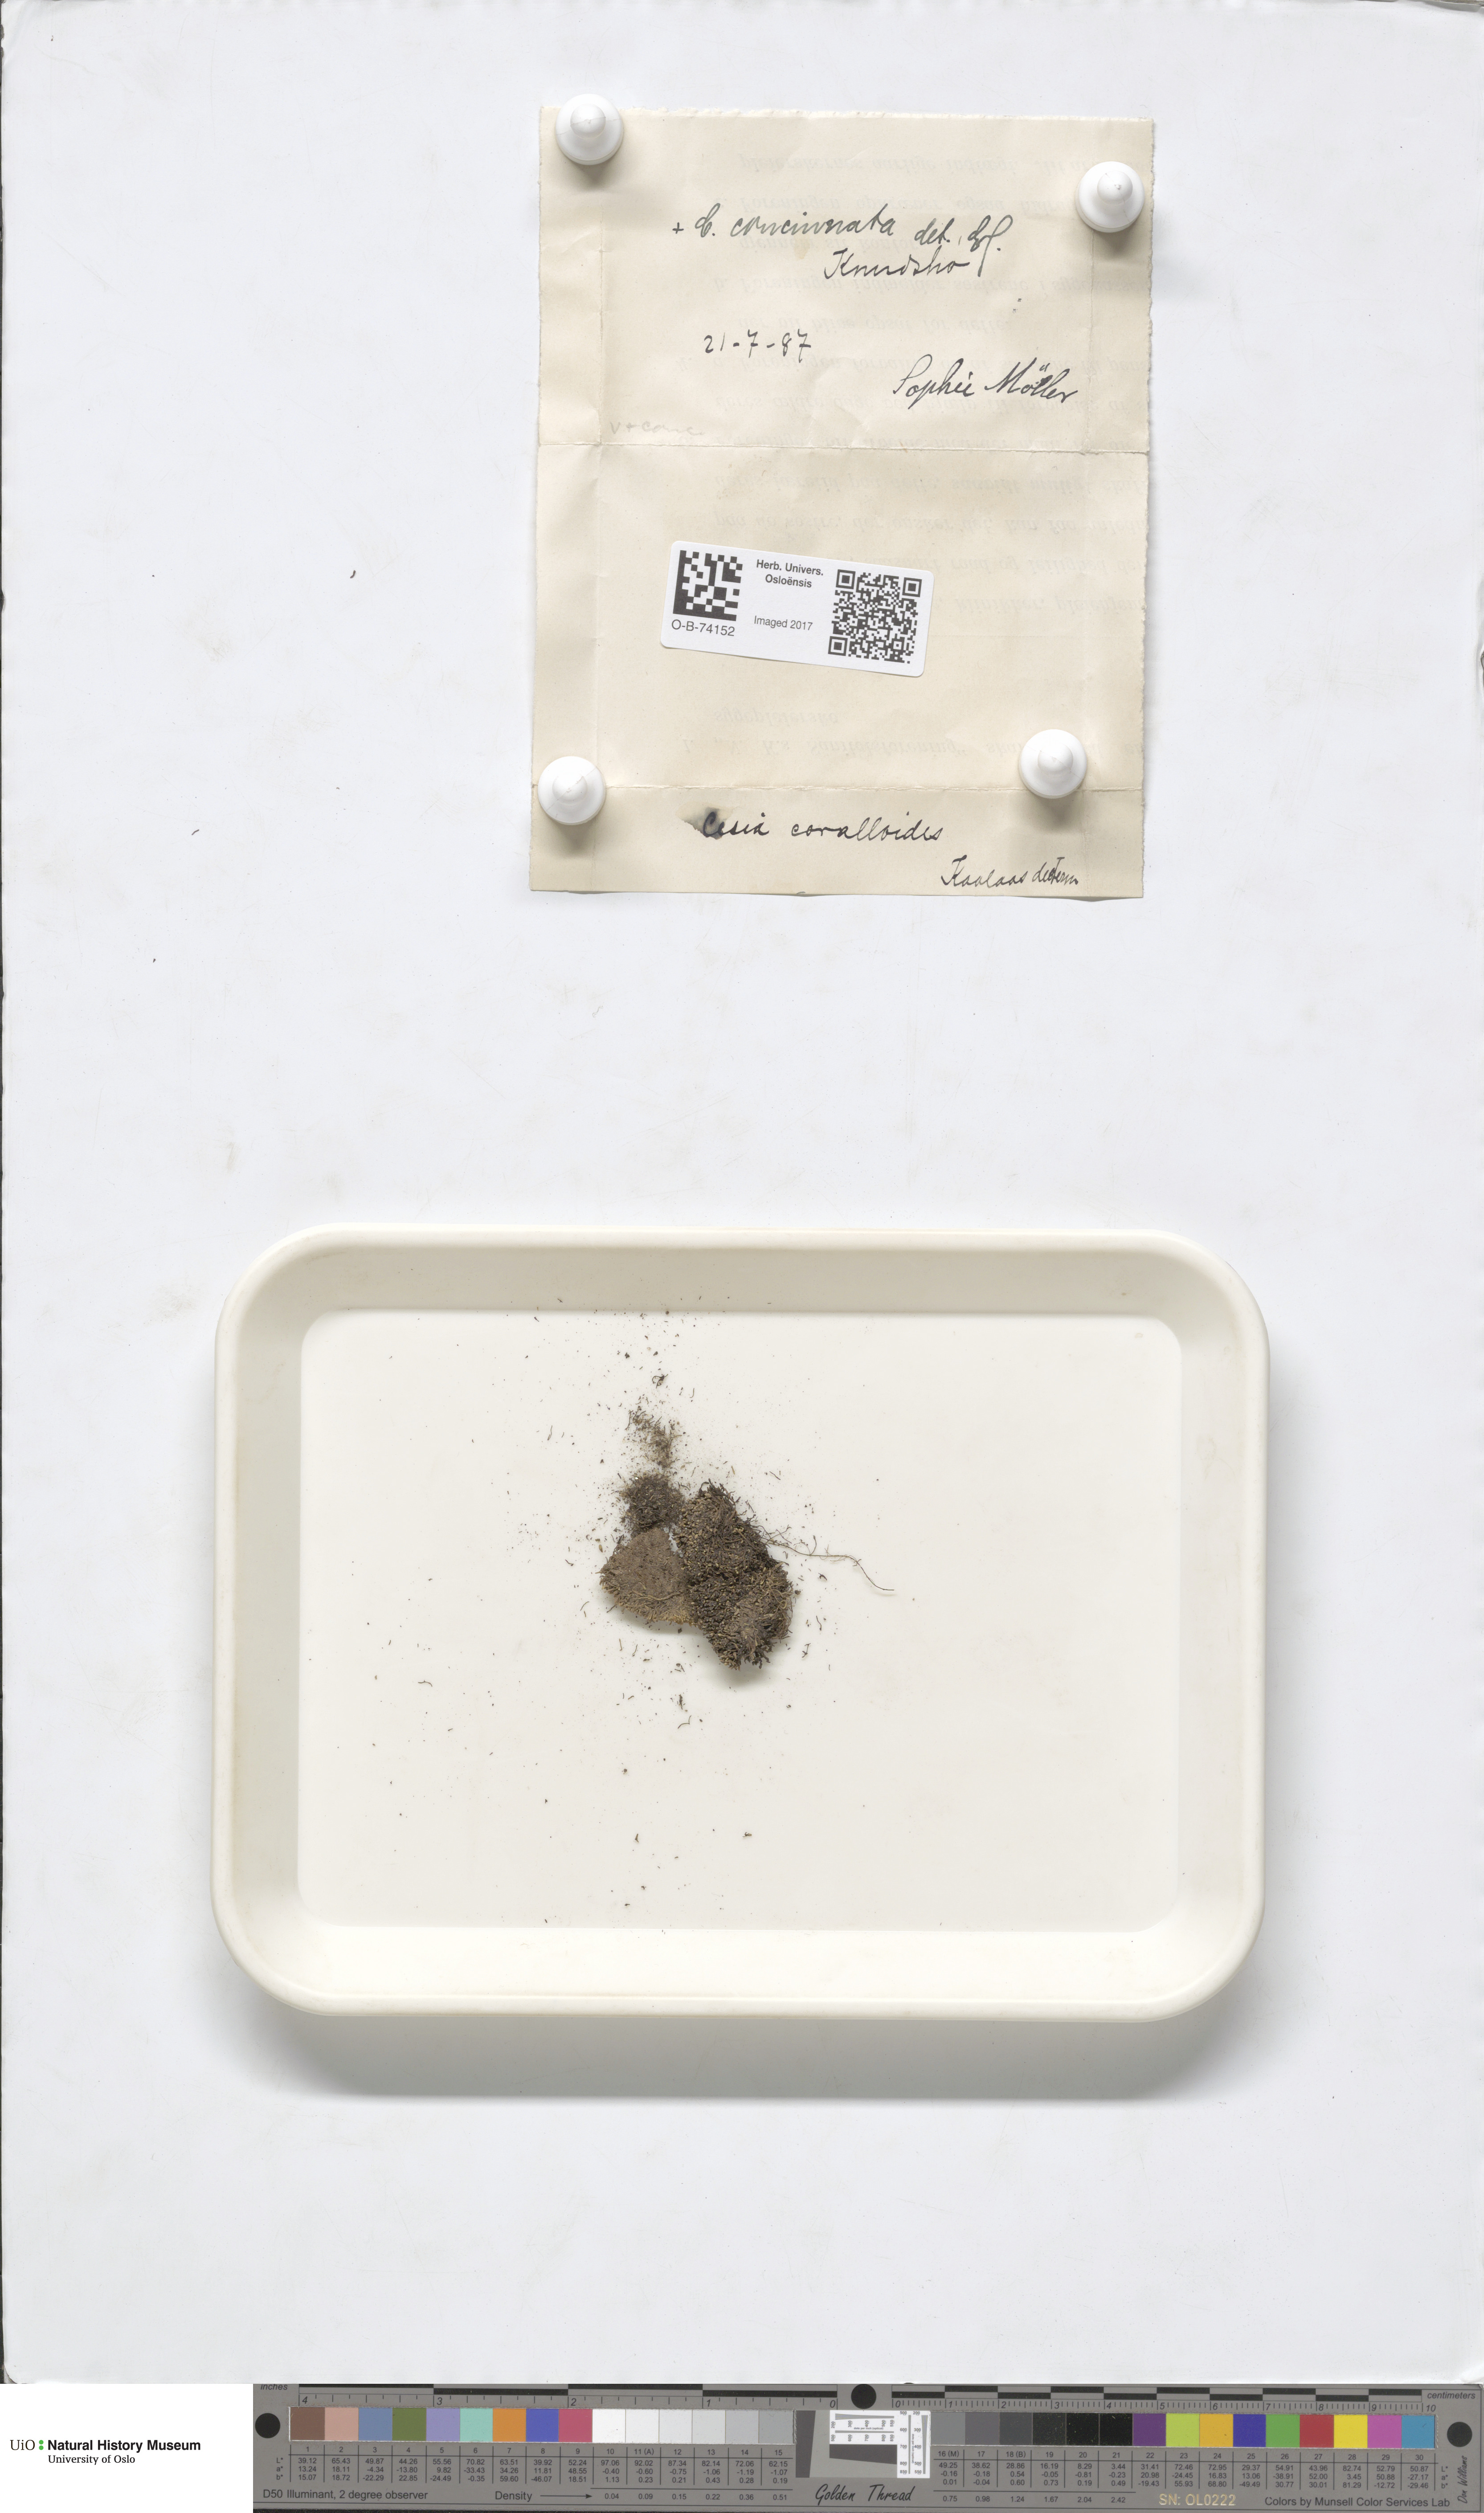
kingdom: Plantae
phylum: Marchantiophyta
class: Jungermanniopsida
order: Jungermanniales
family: Gymnomitriaceae
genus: Gymnomitrion
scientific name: Gymnomitrion corallioides
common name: Coral frostwort
